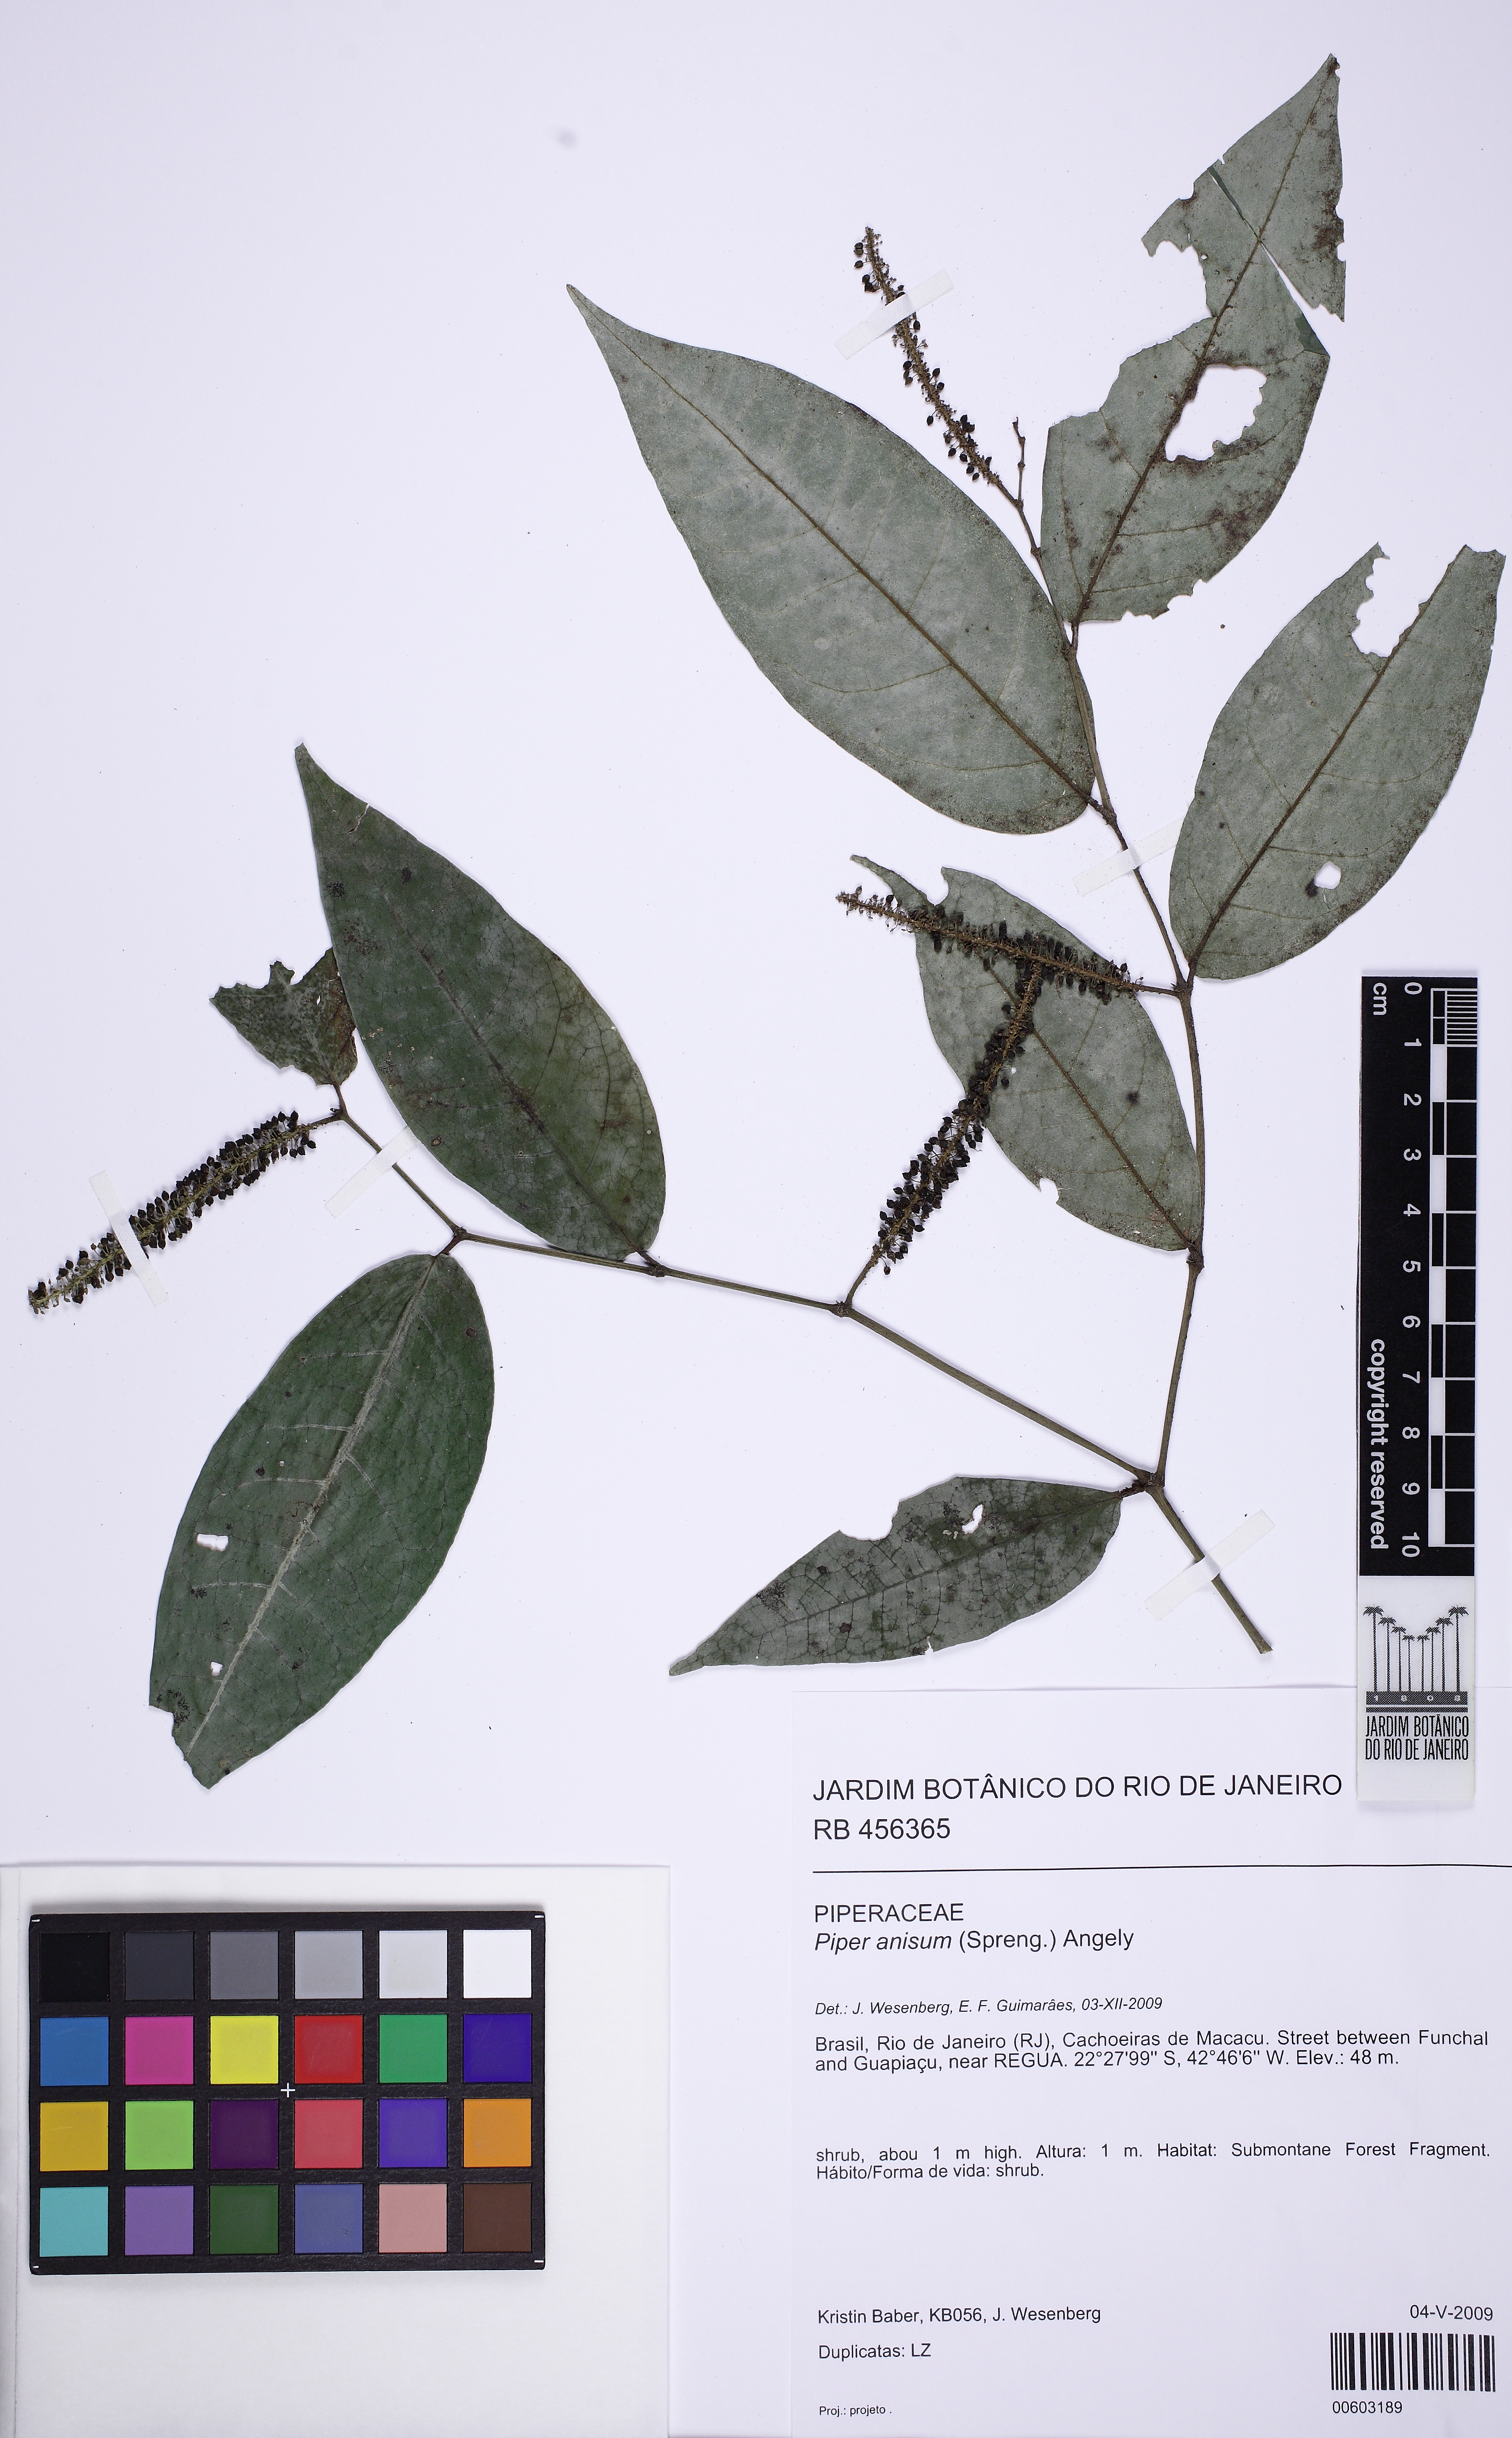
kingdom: Plantae
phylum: Tracheophyta
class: Magnoliopsida
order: Piperales
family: Piperaceae
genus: Piper
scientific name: Piper anisum
